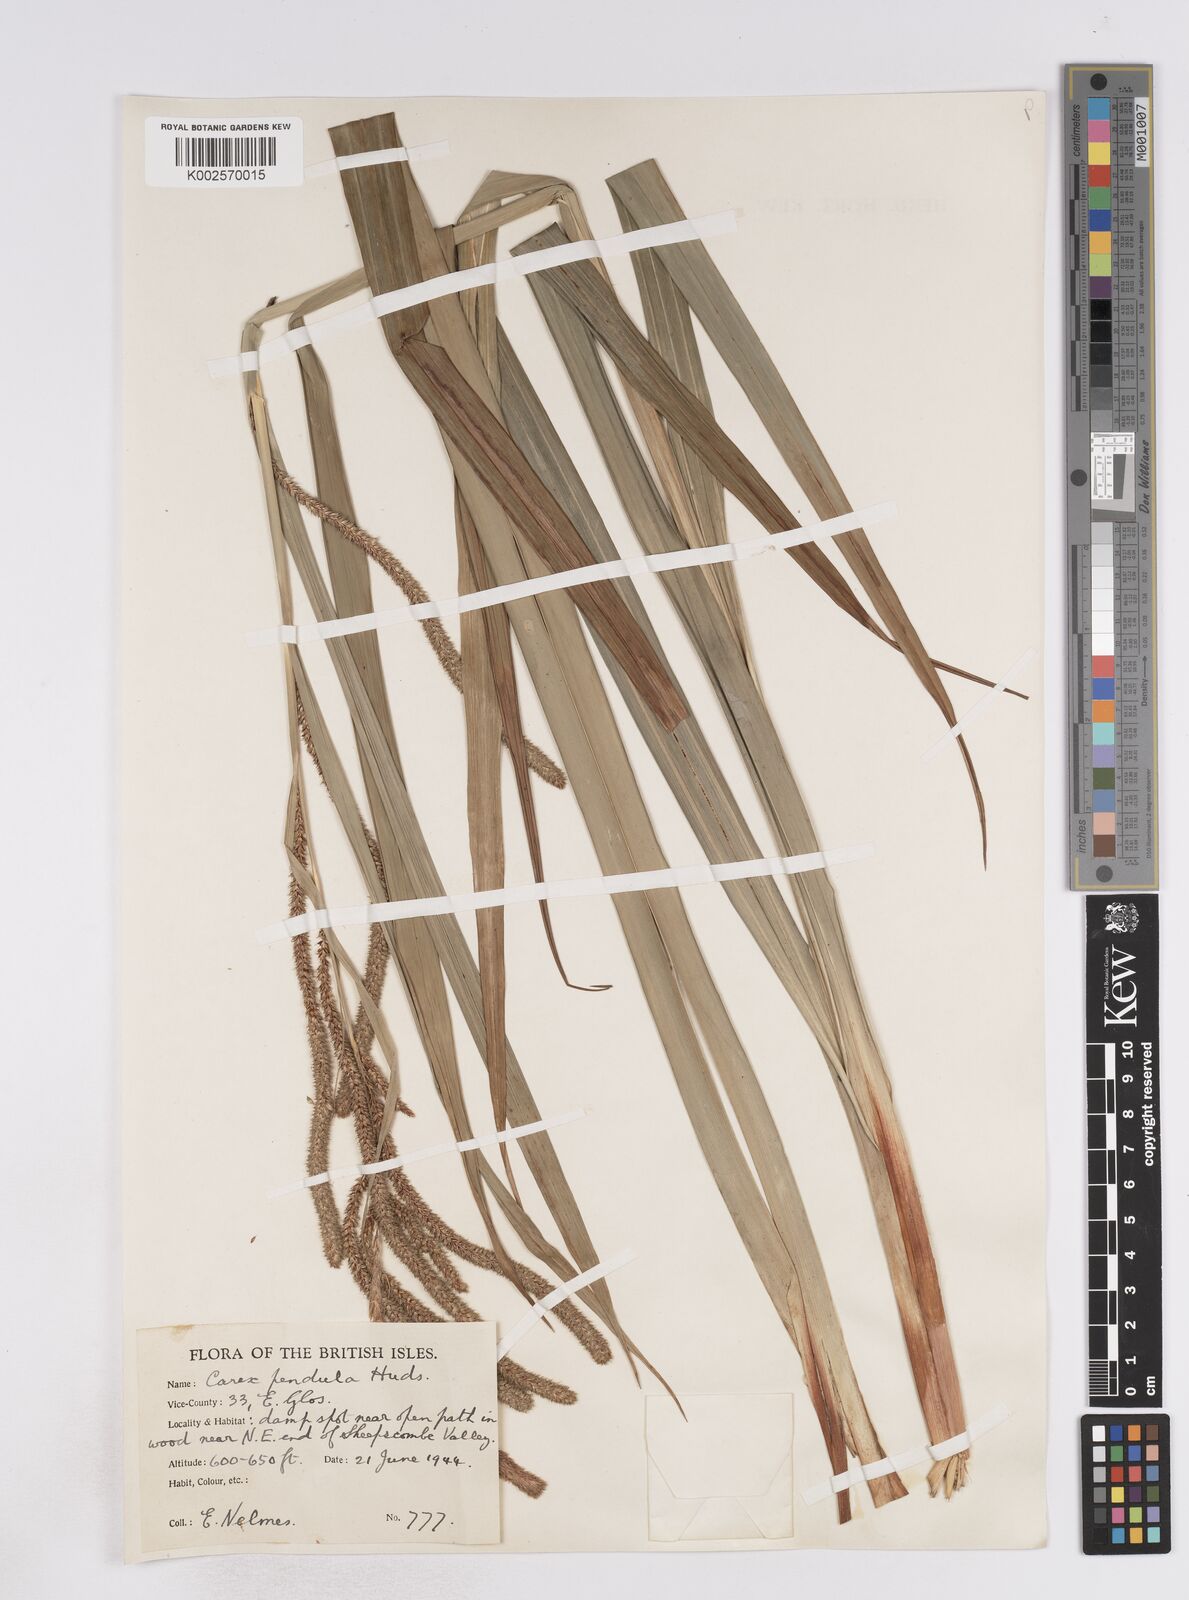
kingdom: Plantae
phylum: Tracheophyta
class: Liliopsida
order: Poales
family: Cyperaceae
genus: Carex
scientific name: Carex pendula
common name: Pendulous sedge
